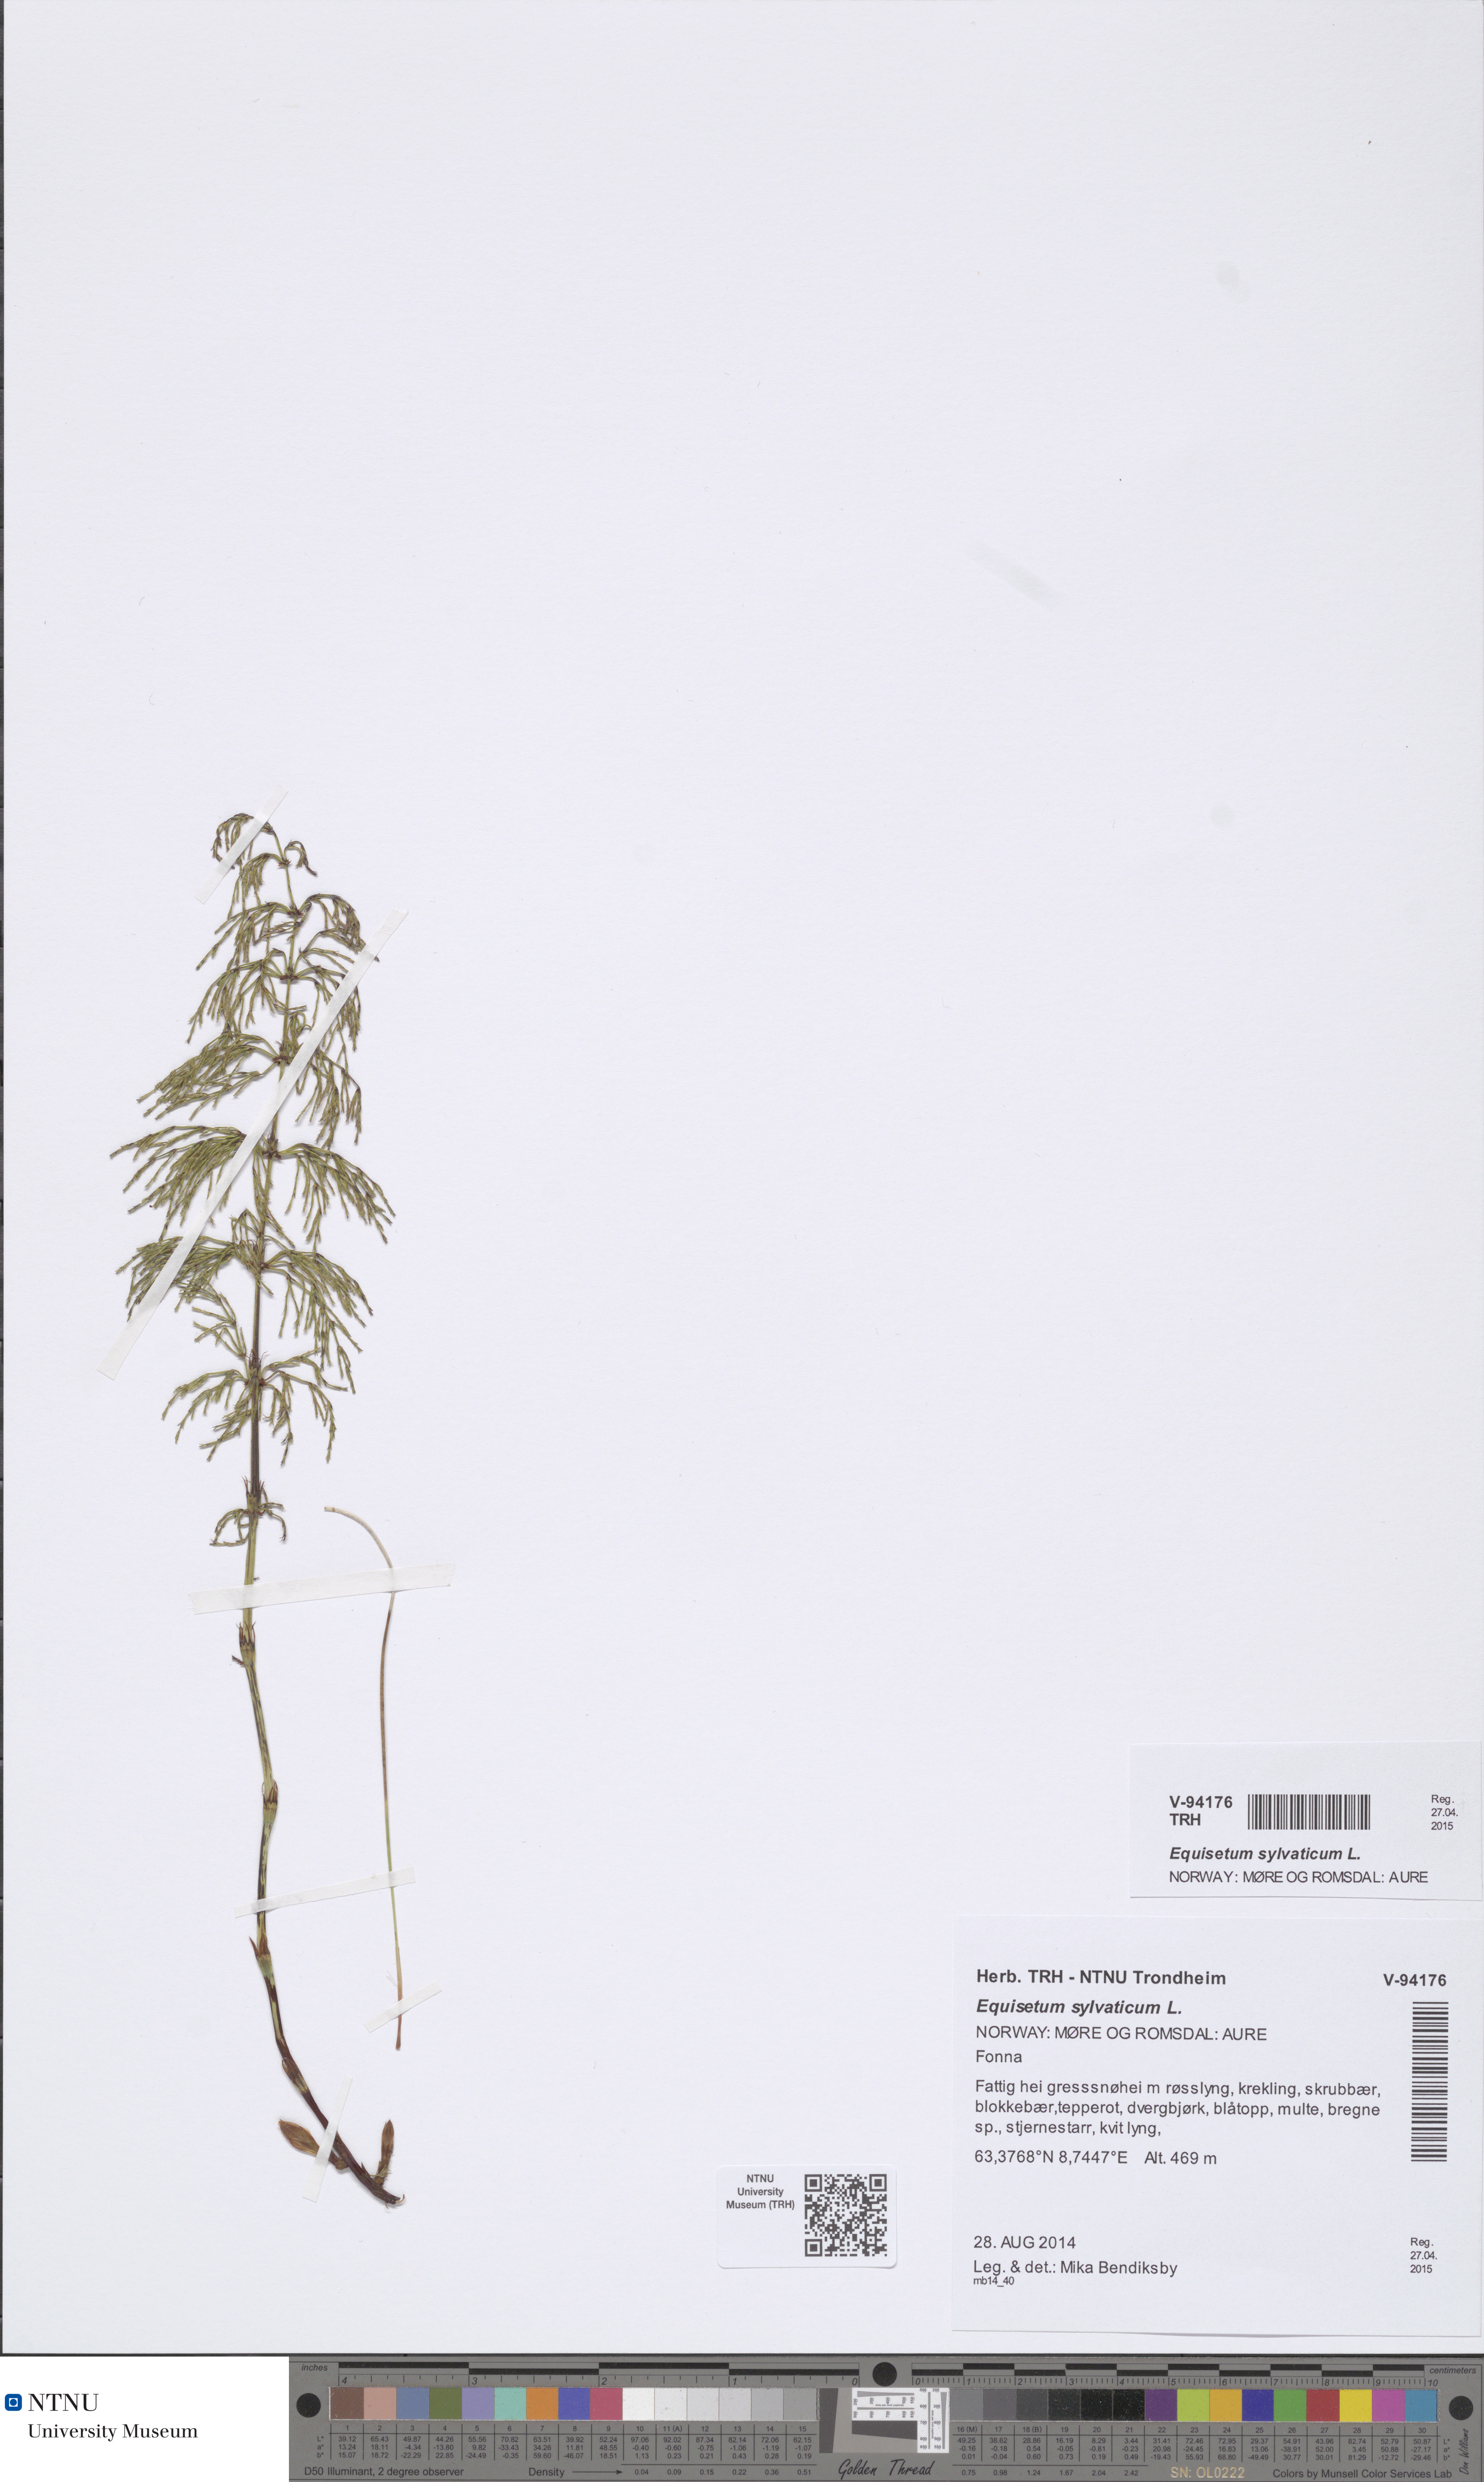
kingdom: Plantae
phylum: Tracheophyta
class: Polypodiopsida
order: Equisetales
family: Equisetaceae
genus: Equisetum
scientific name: Equisetum sylvaticum
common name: Wood horsetail
